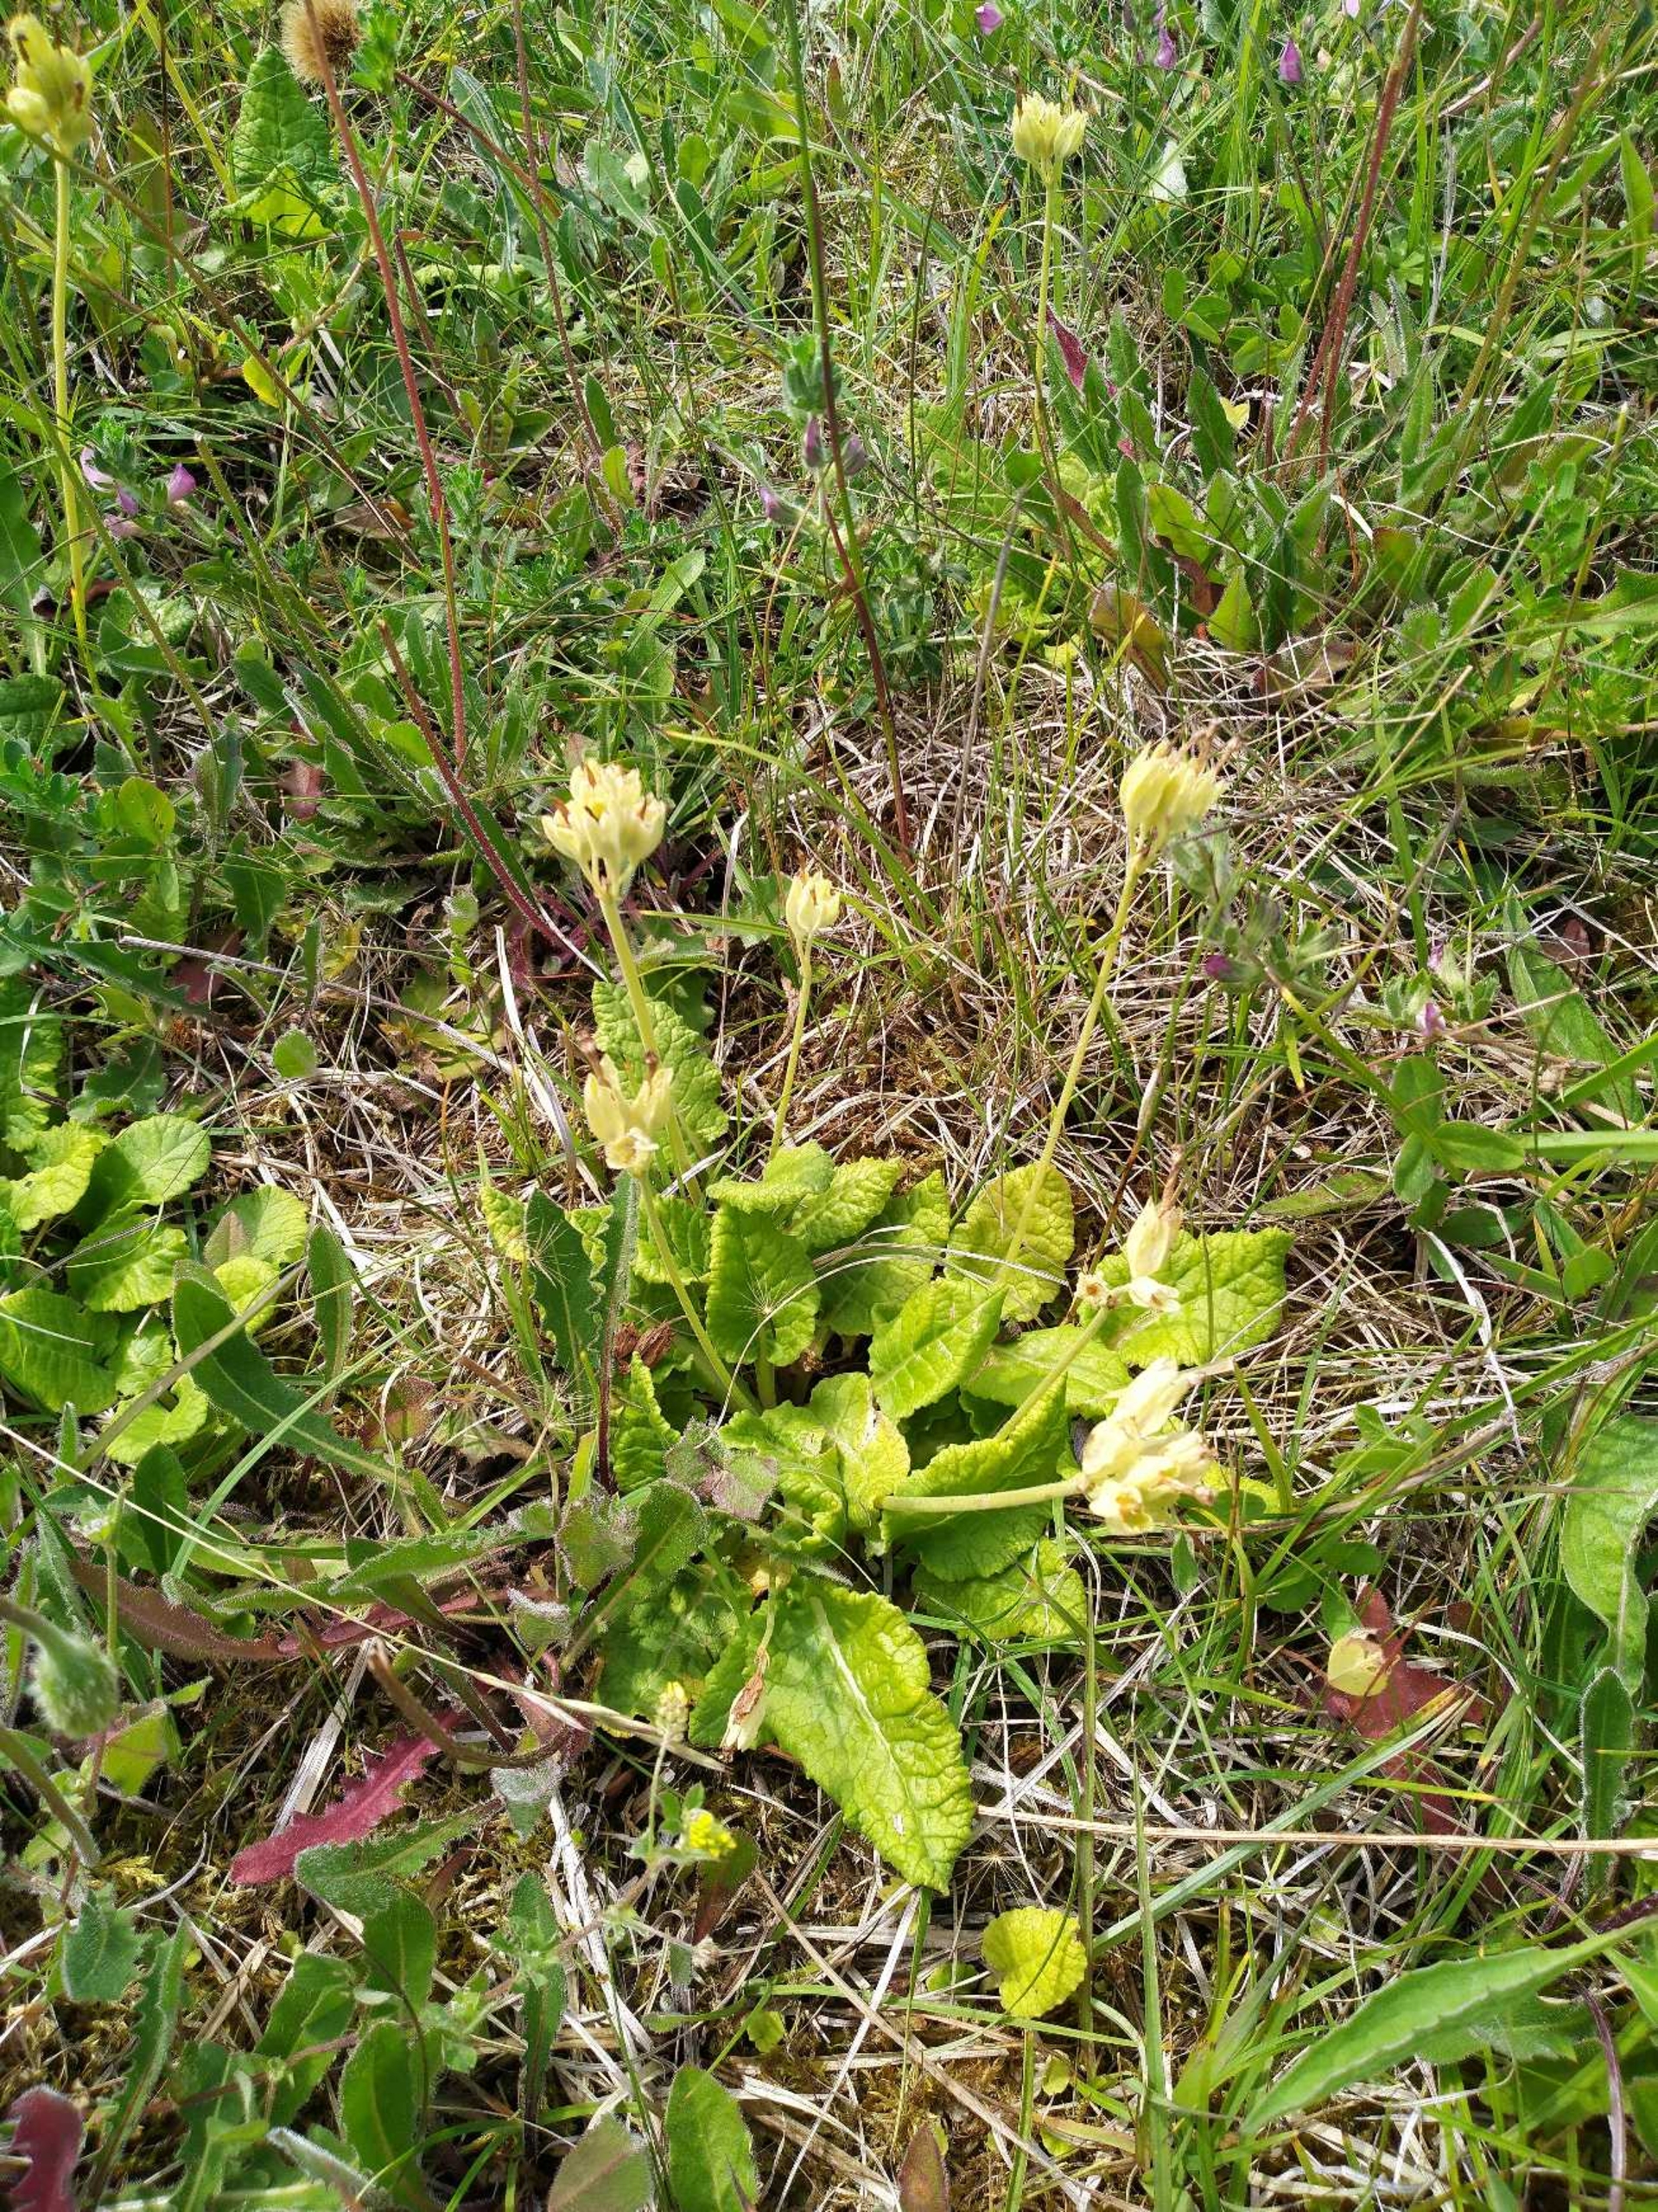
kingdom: Plantae
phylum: Tracheophyta
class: Magnoliopsida
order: Ericales
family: Primulaceae
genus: Primula
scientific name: Primula veris
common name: Hulkravet kodriver
